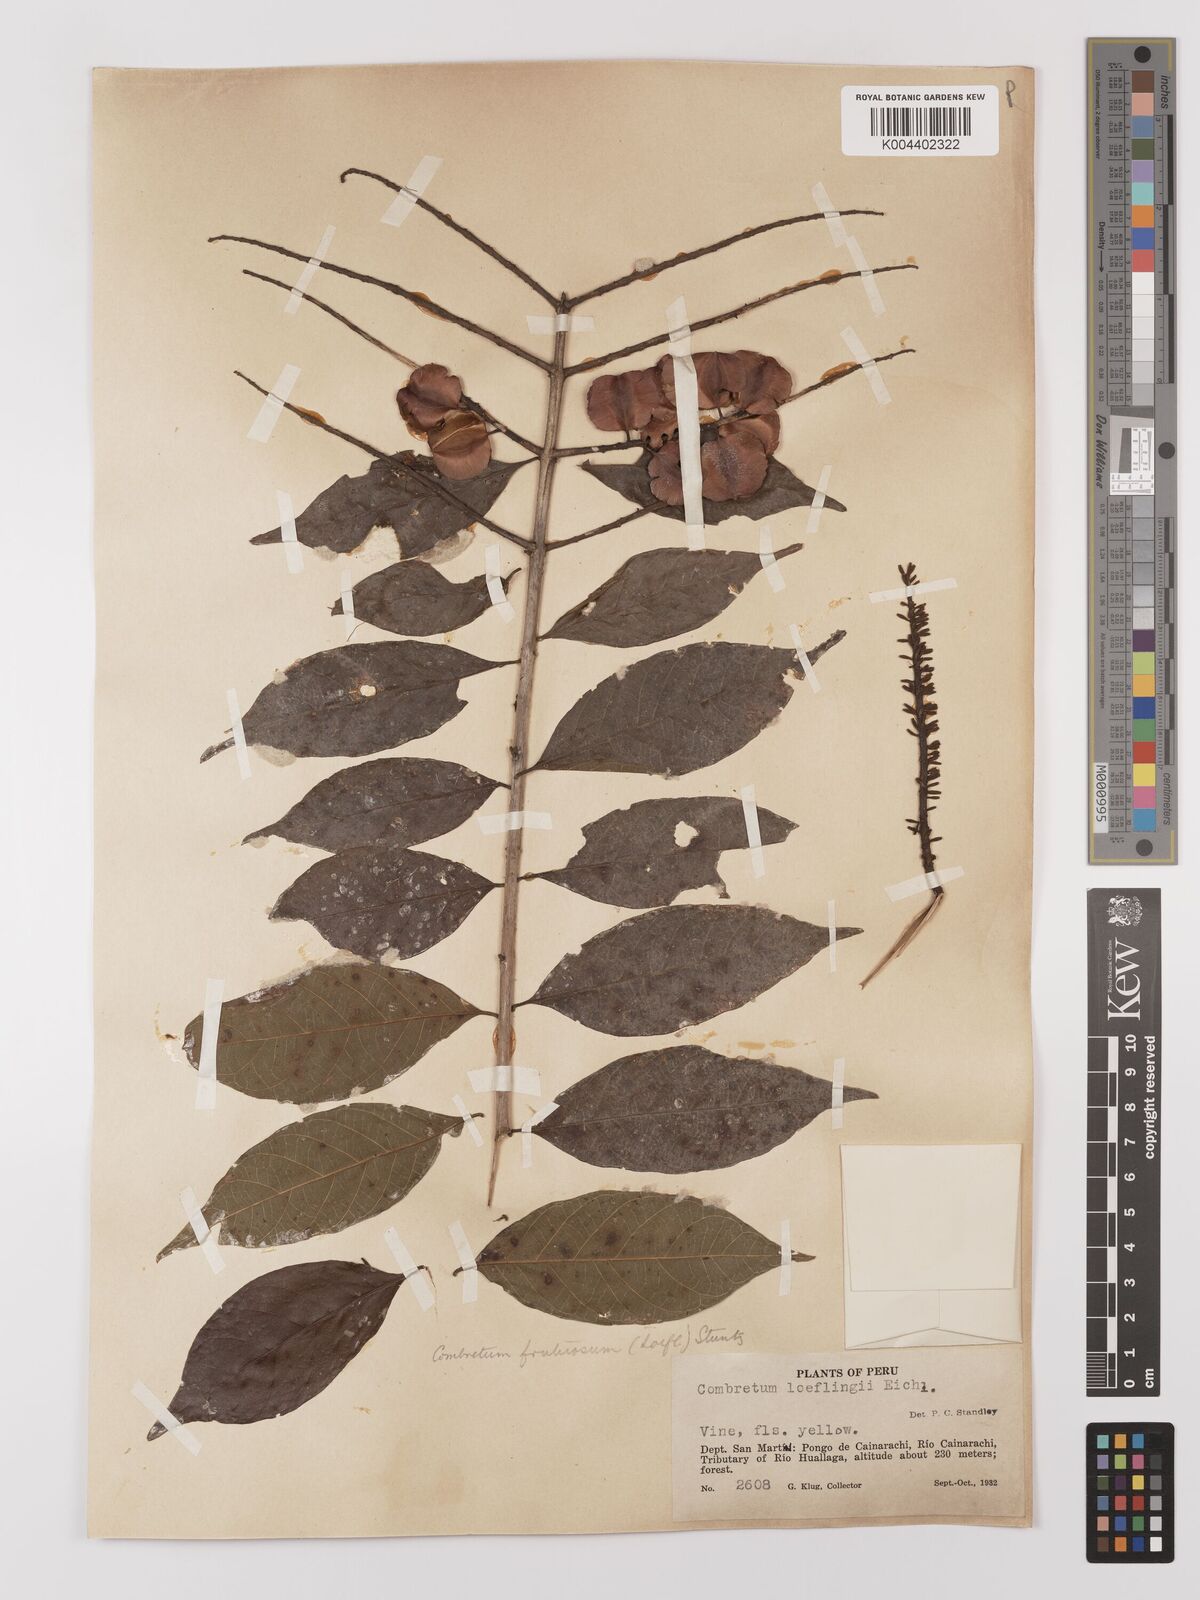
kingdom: Plantae
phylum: Tracheophyta
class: Magnoliopsida
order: Myrtales
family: Combretaceae
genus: Combretum
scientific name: Combretum fruticosum
